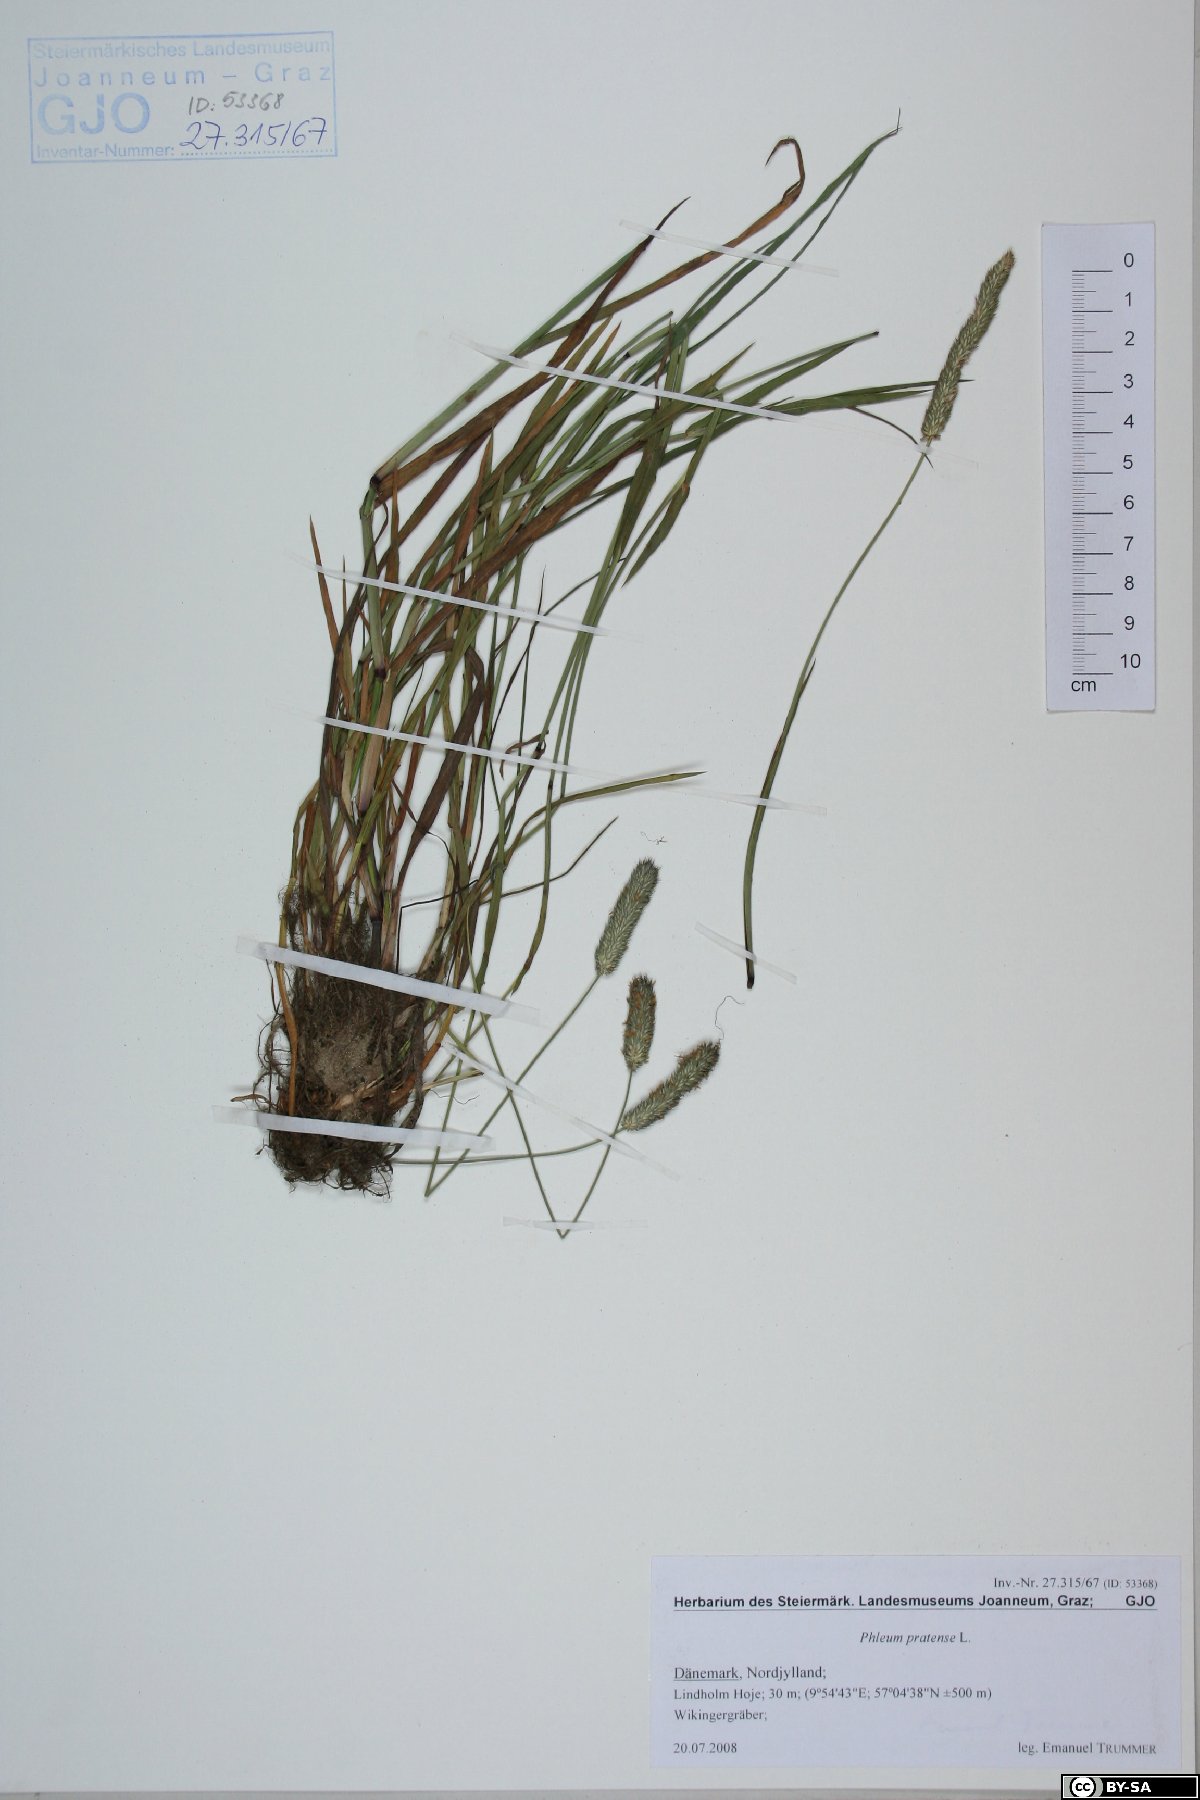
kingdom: Plantae
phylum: Tracheophyta
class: Liliopsida
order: Poales
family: Poaceae
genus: Phleum
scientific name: Phleum pratense
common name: Timothy grass
